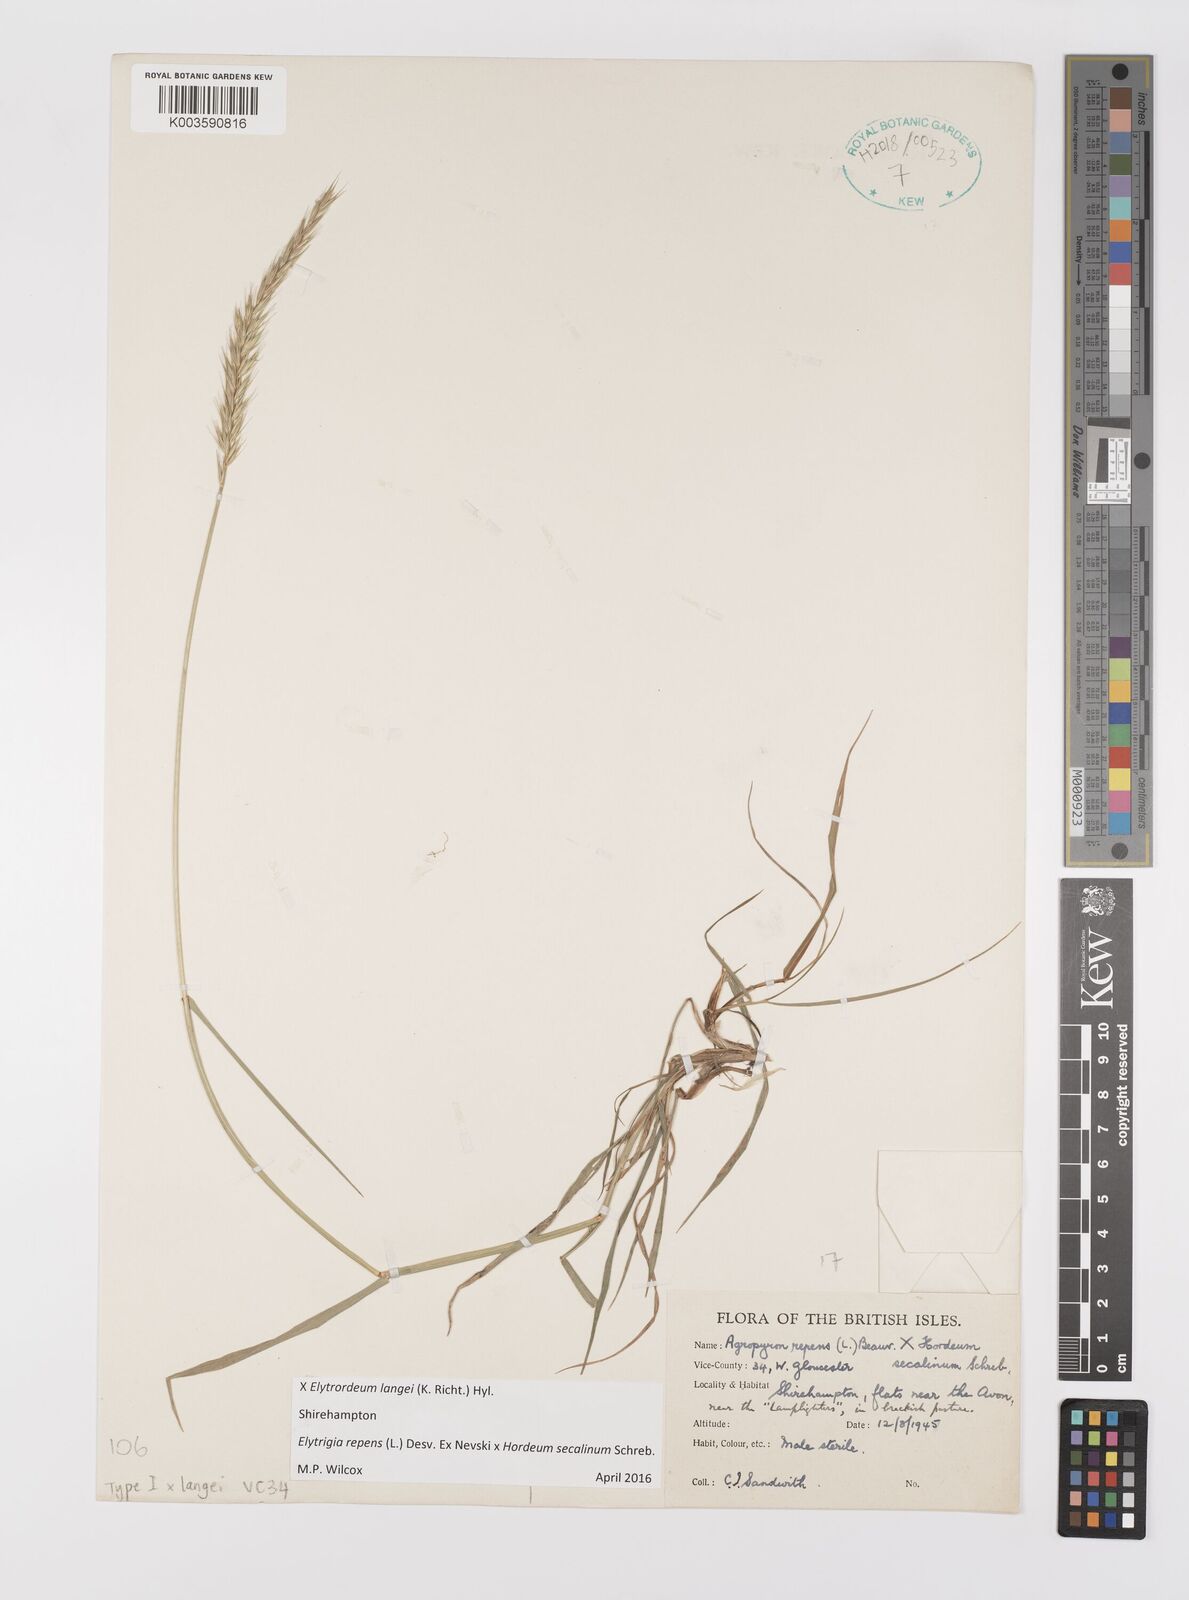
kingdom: Plantae
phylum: Tracheophyta
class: Liliopsida
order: Poales
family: Poaceae
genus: Elyhordeum
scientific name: Elyhordeum langei
